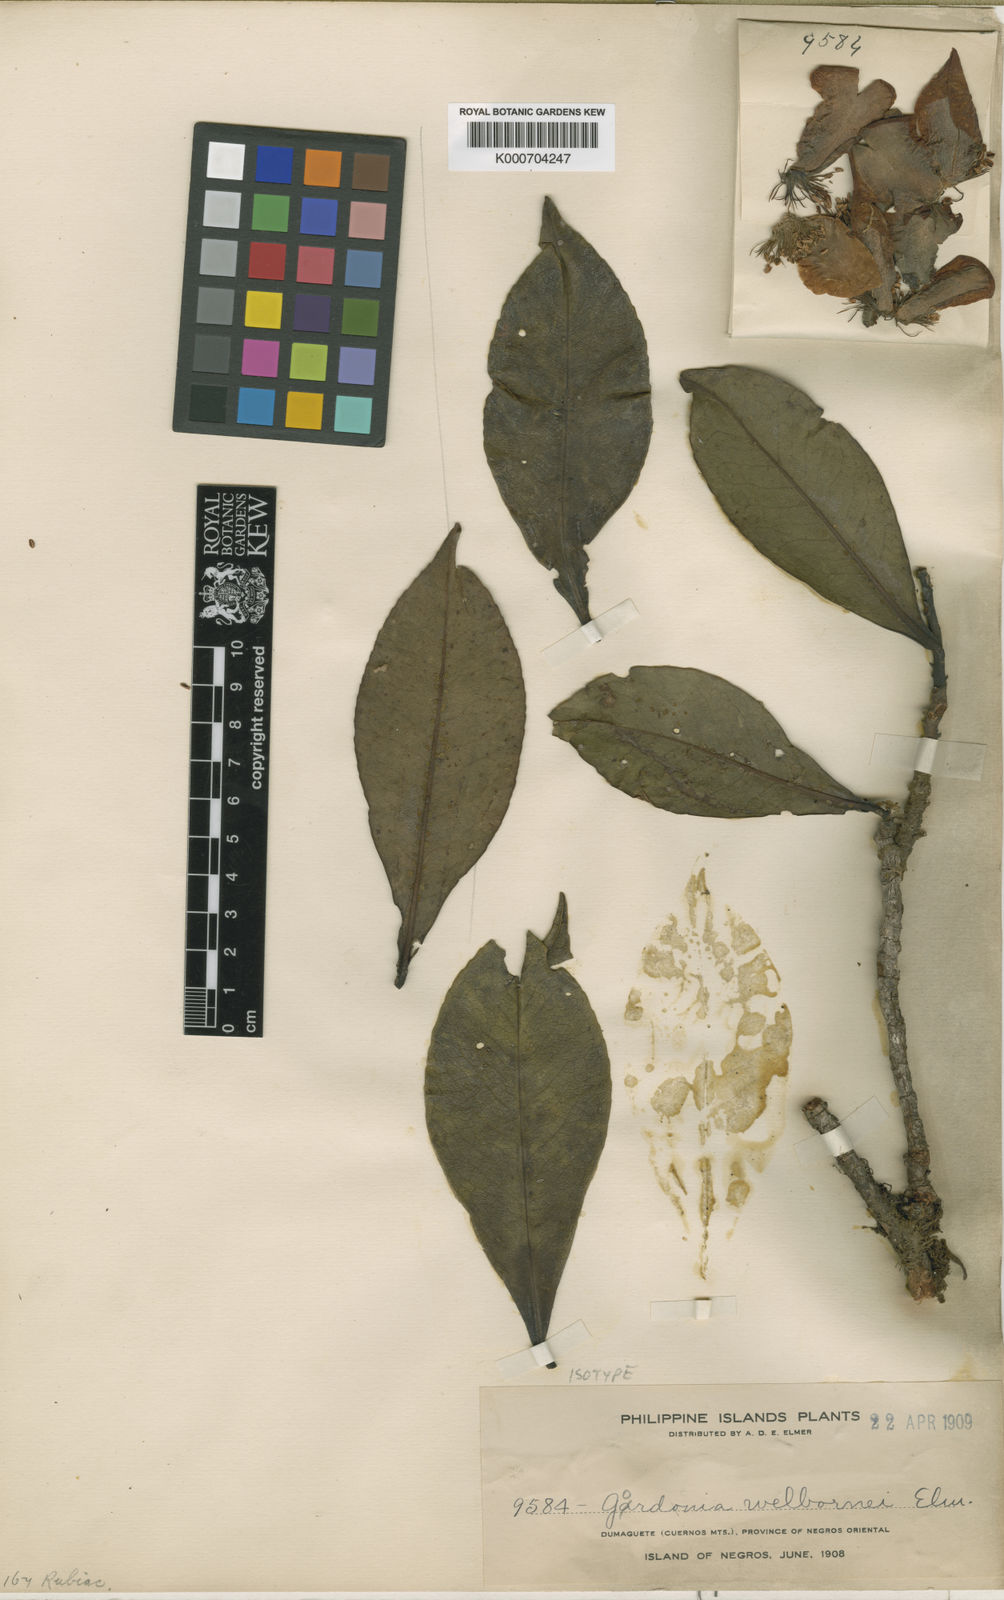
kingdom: Plantae
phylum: Tracheophyta
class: Magnoliopsida
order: Ericales
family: Theaceae
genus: Polyspora
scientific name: Polyspora luzonica
